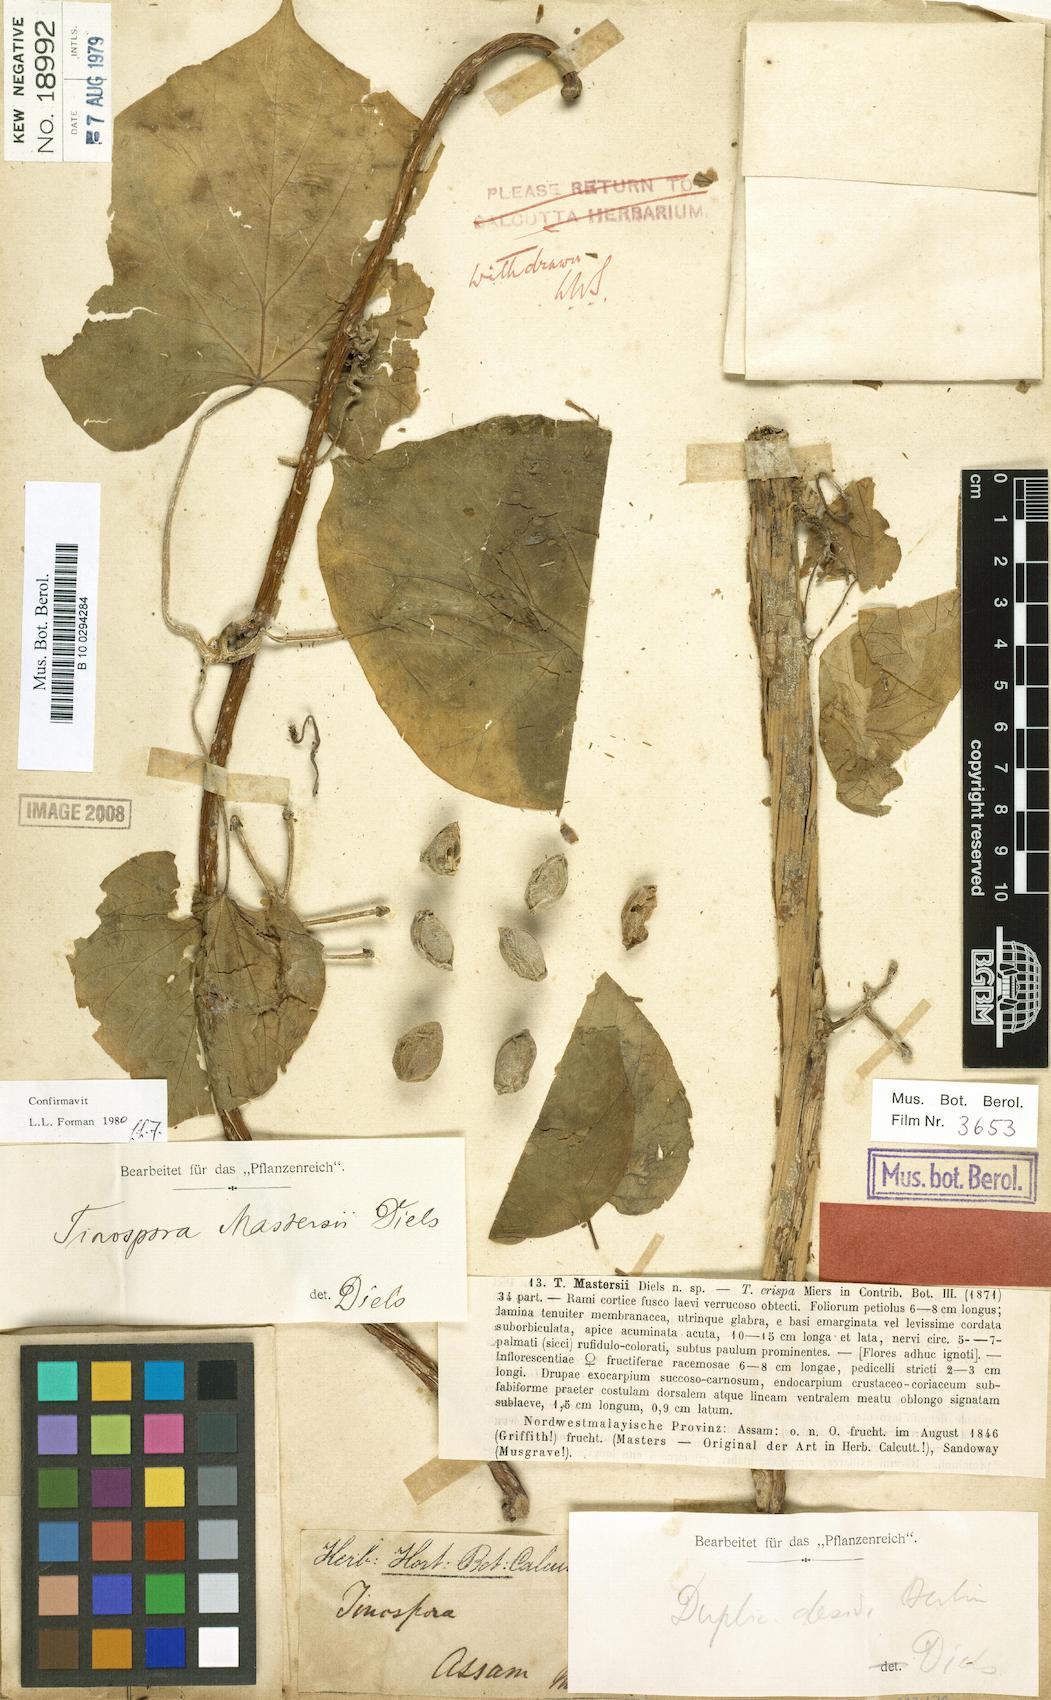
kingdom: Plantae
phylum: Tracheophyta
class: Magnoliopsida
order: Ranunculales
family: Menispermaceae
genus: Tinospora
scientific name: Tinospora crispa
